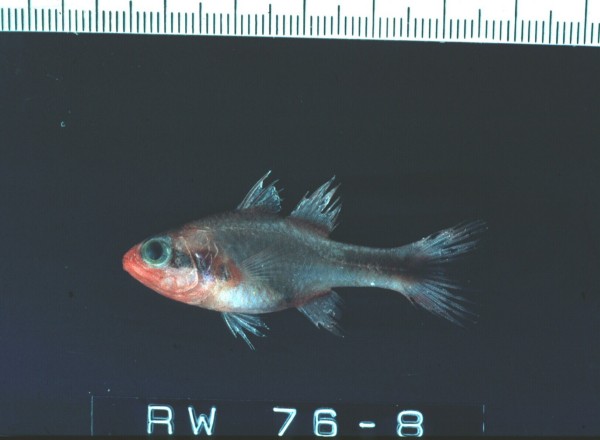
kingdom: Animalia
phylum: Chordata
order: Perciformes
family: Apogonidae
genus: Apogon
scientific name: Apogon semiornatus
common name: Threeband cardinalfish
